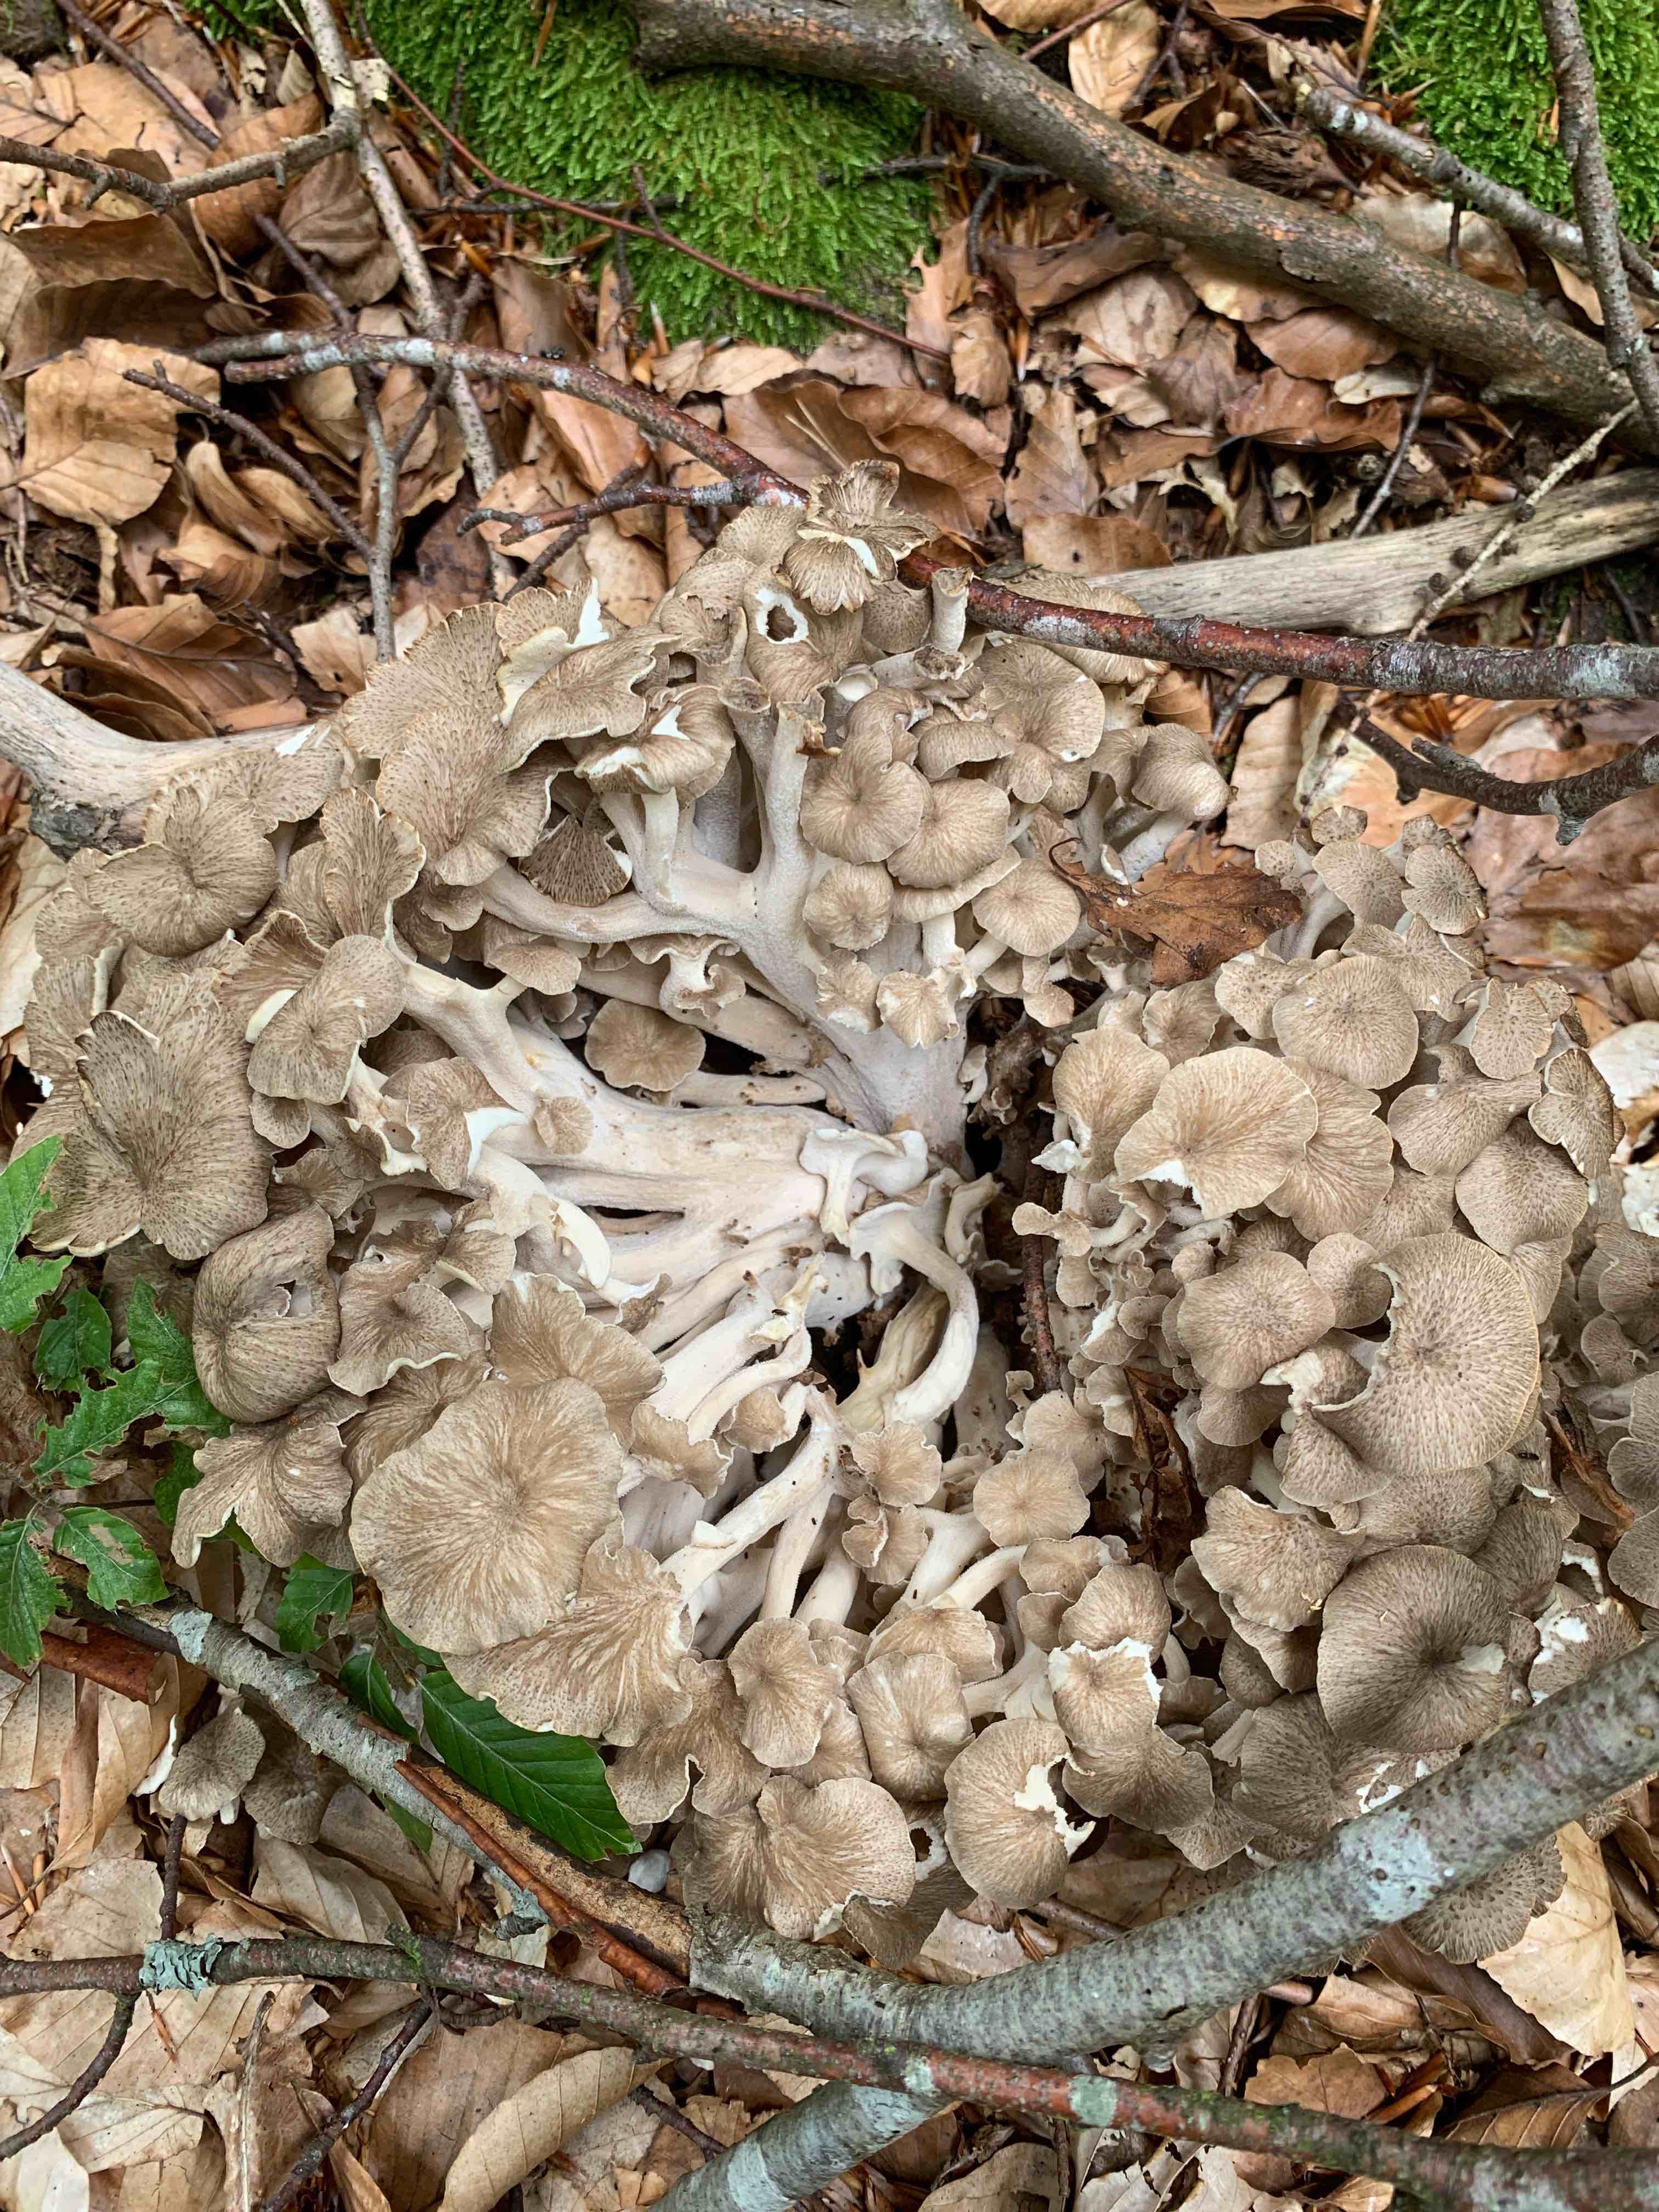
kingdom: Fungi
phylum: Basidiomycota
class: Agaricomycetes
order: Polyporales
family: Polyporaceae
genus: Polyporus
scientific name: Polyporus umbellatus
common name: skærmformet stilkporesvamp
